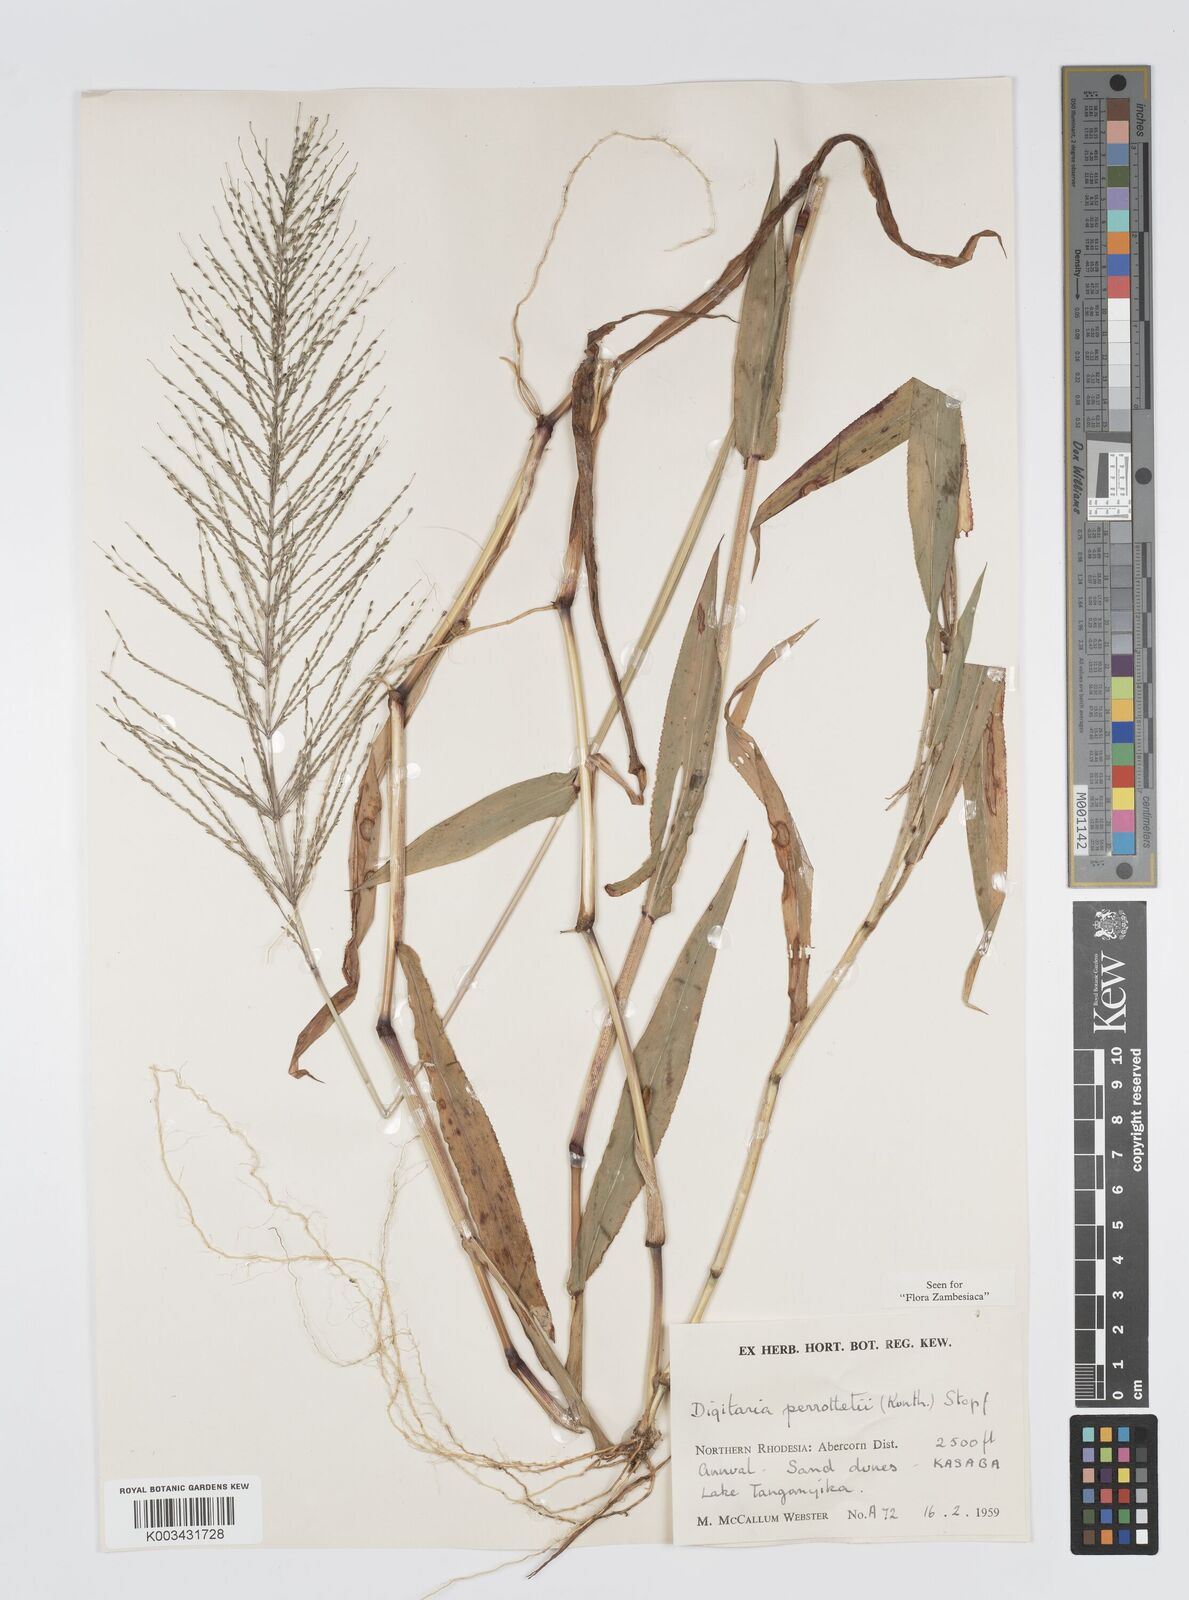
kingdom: Plantae
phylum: Tracheophyta
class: Liliopsida
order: Poales
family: Poaceae
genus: Digitaria
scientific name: Digitaria perrottetii
